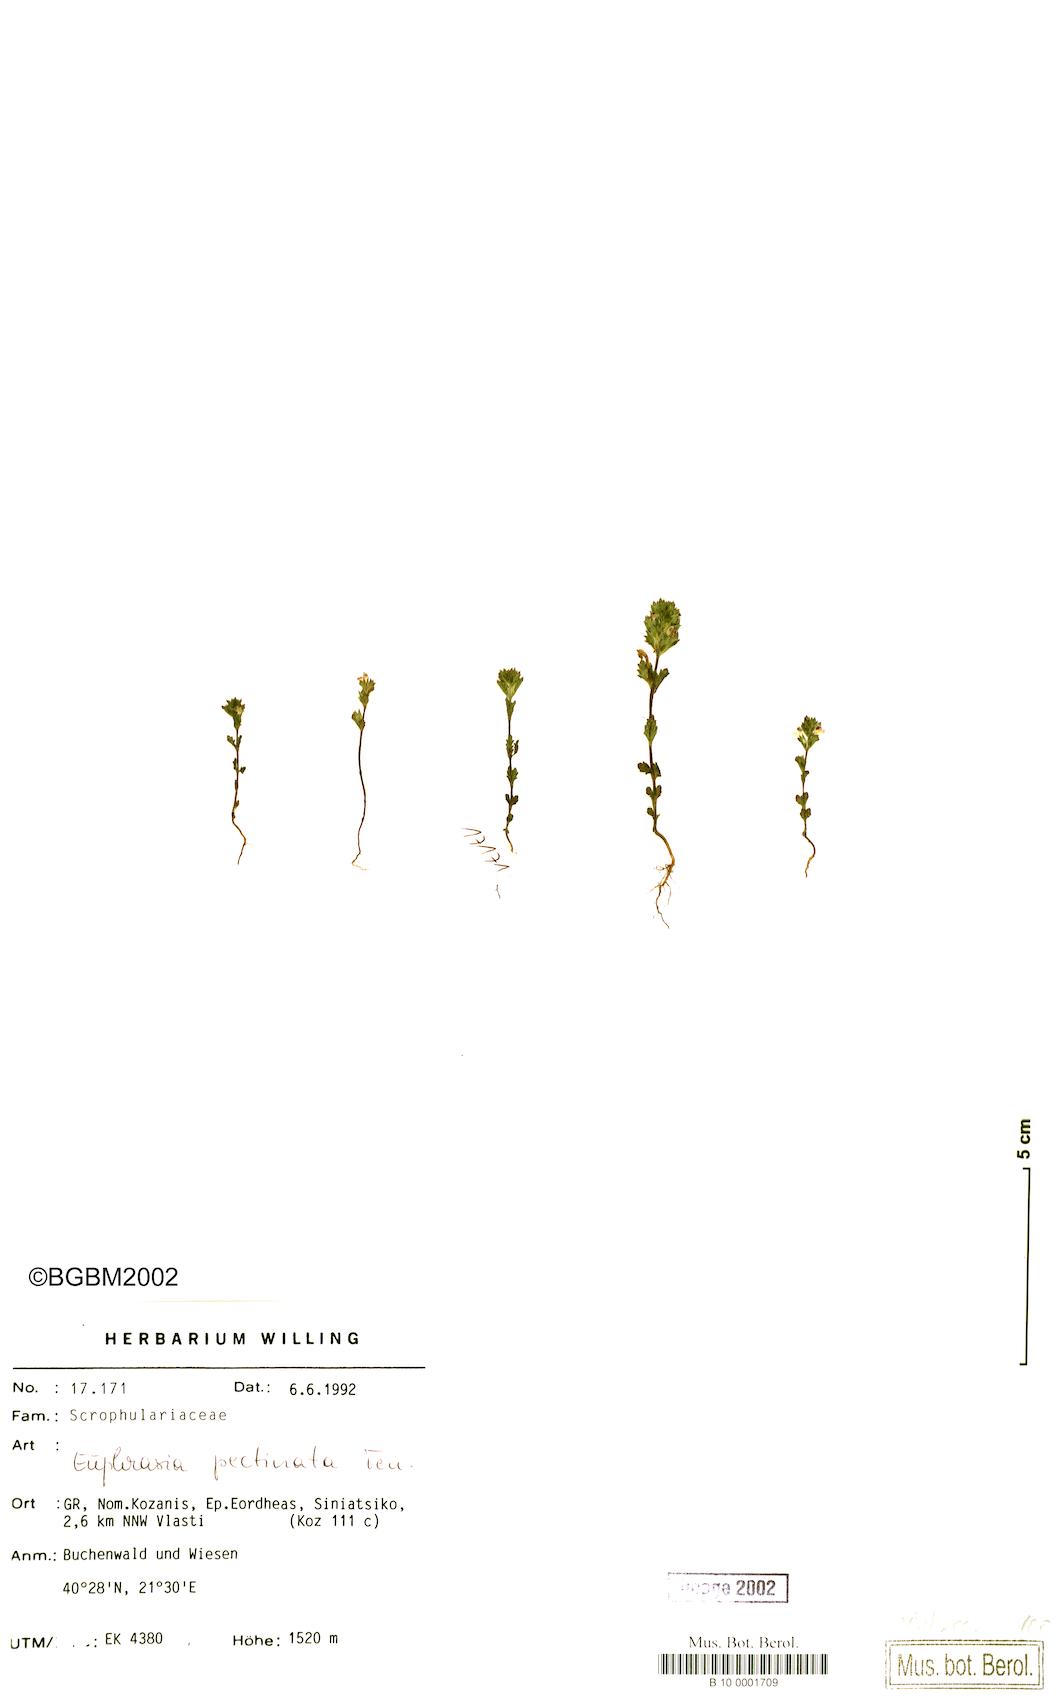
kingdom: Plantae
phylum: Tracheophyta
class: Magnoliopsida
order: Lamiales
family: Orobanchaceae
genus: Euphrasia
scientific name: Euphrasia pectinata
